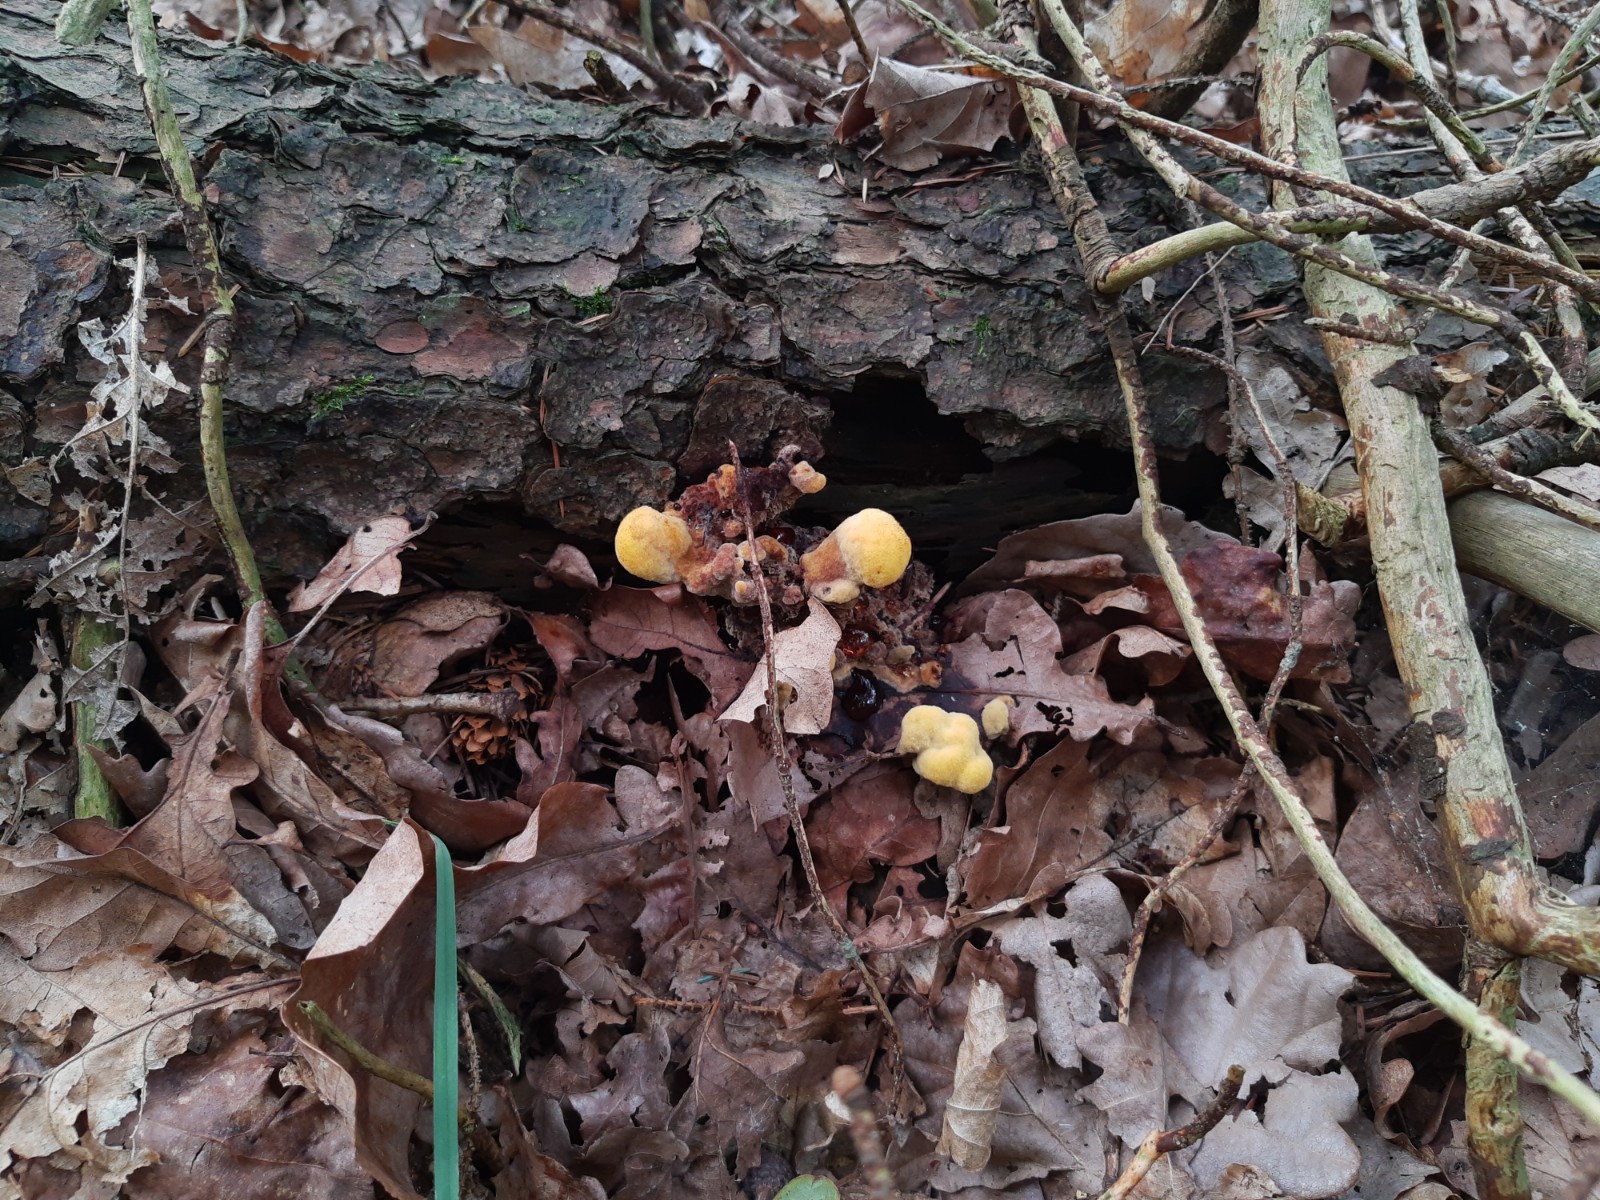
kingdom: Fungi
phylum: Basidiomycota
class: Agaricomycetes
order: Polyporales
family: Laetiporaceae
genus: Phaeolus
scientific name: Phaeolus schweinitzii
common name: brunporesvamp
